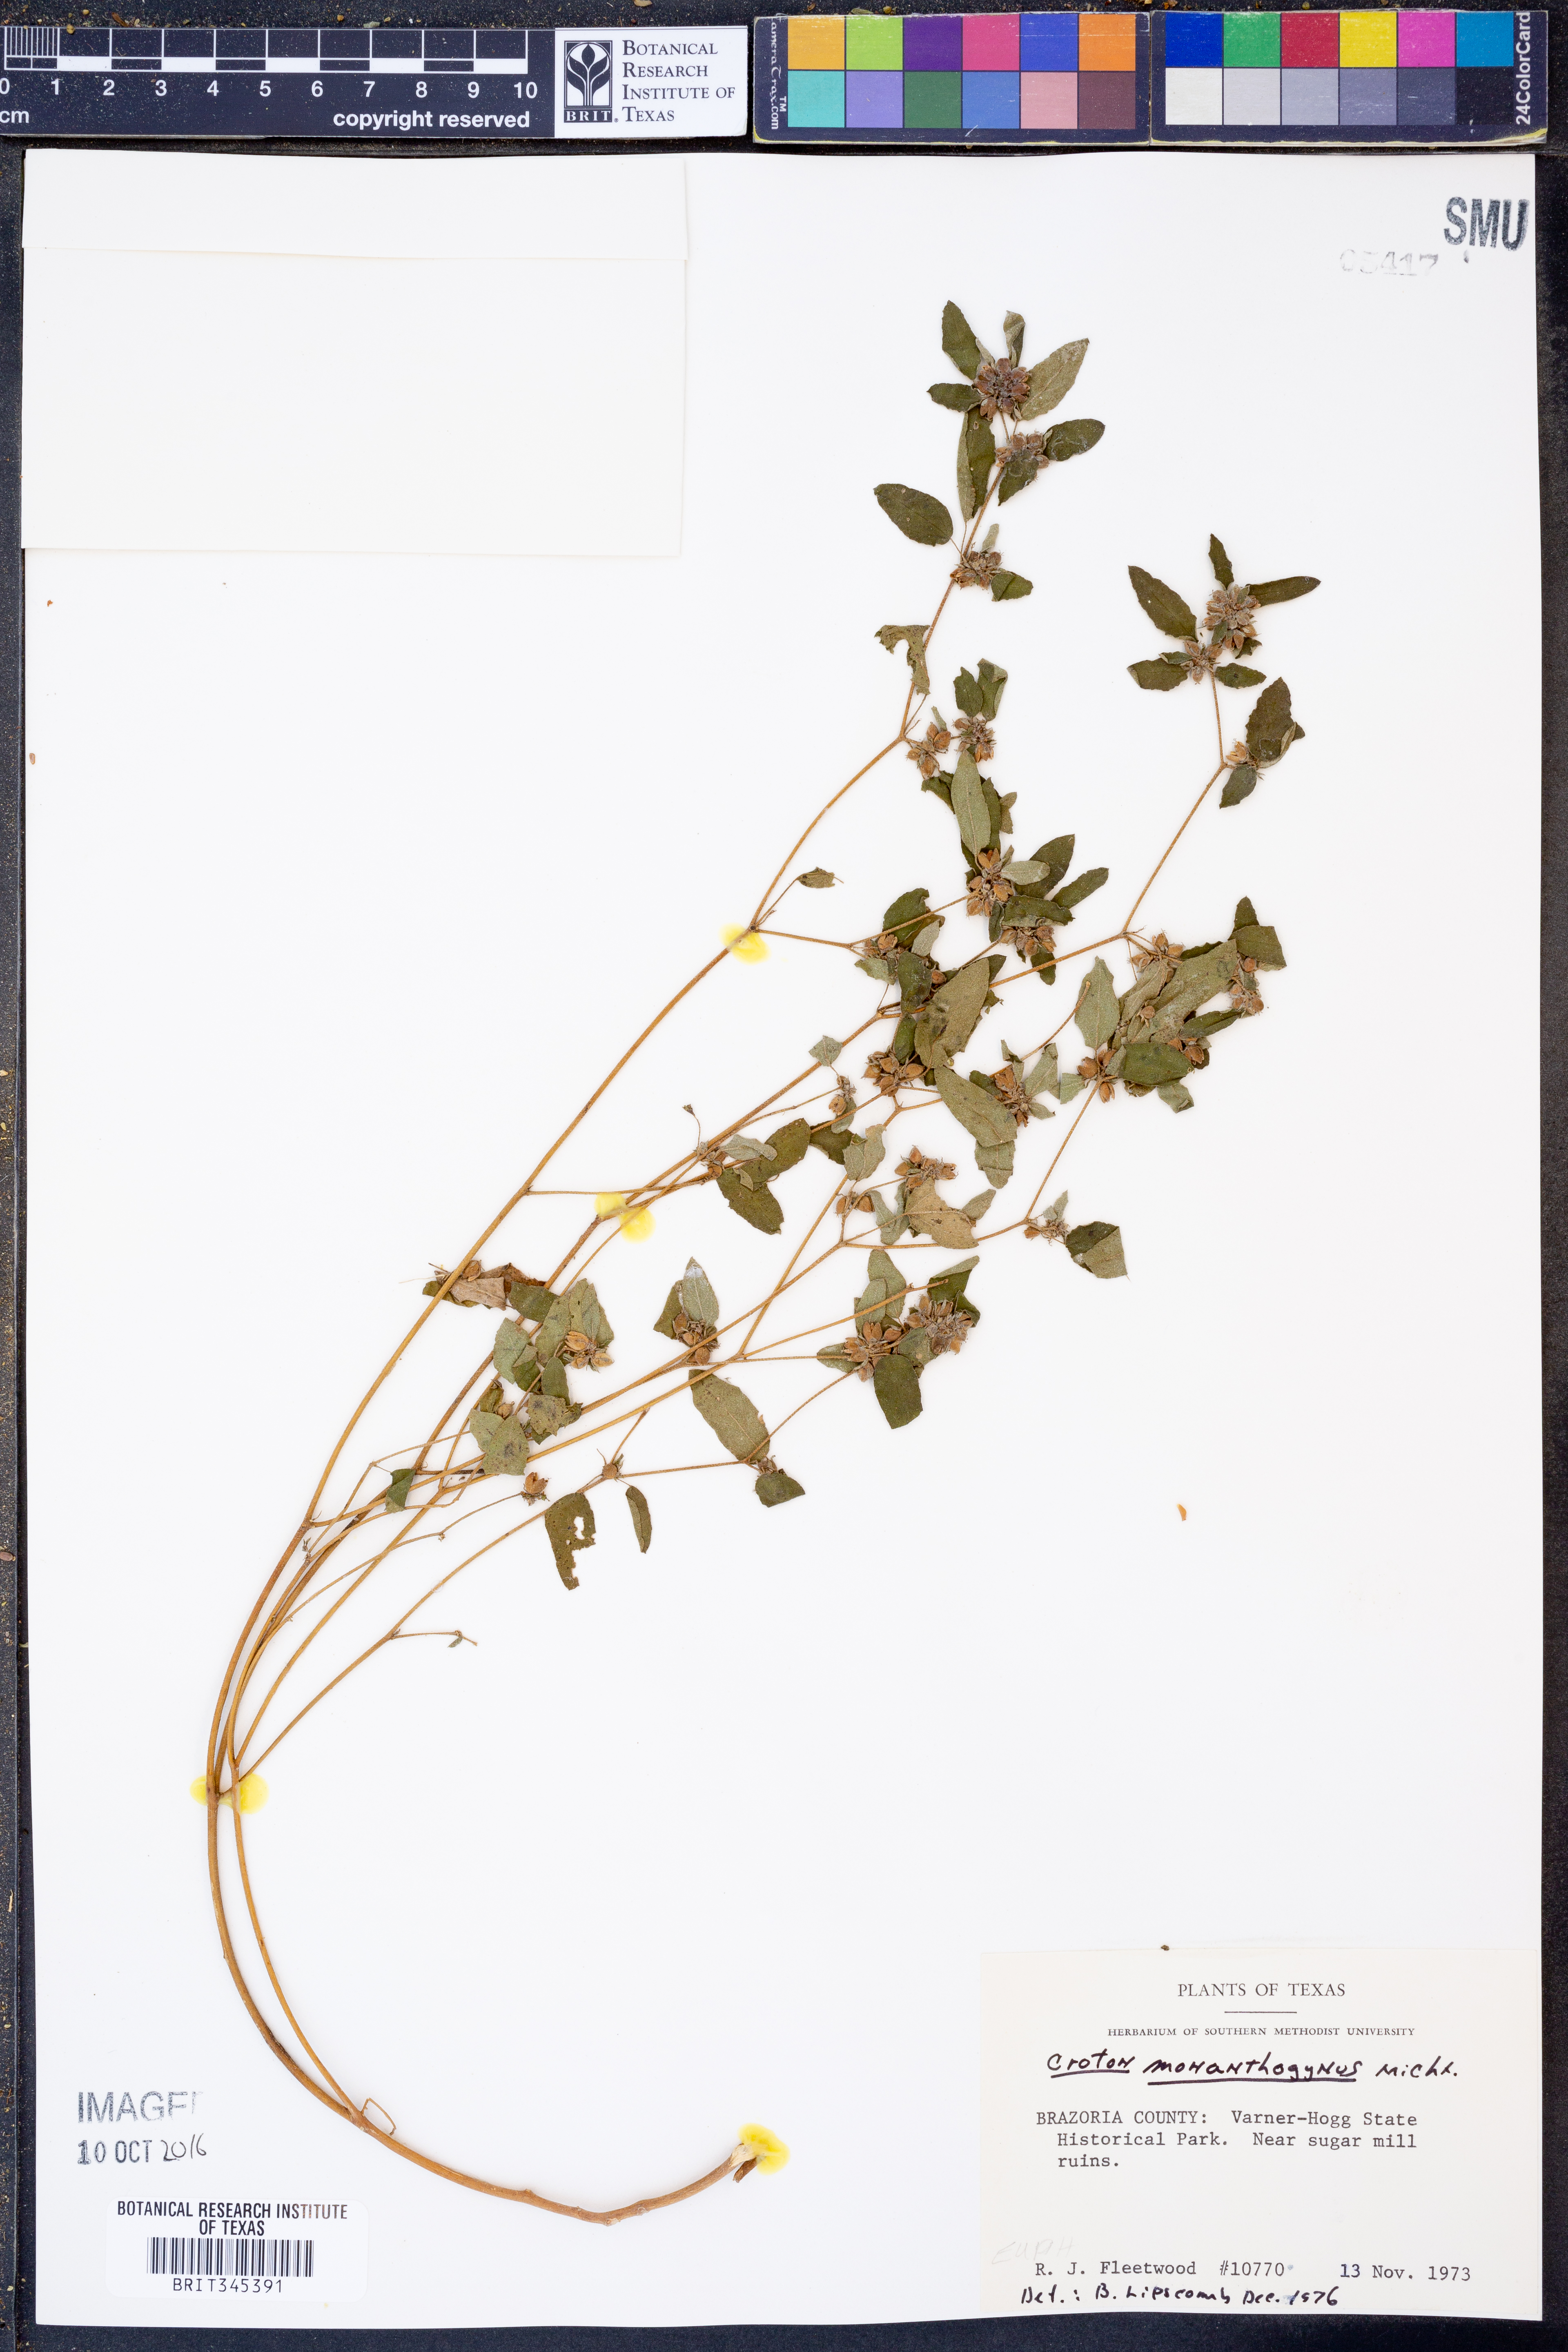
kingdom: Plantae
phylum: Tracheophyta
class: Magnoliopsida
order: Malpighiales
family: Euphorbiaceae
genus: Croton
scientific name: Croton monanthogynus
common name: One-seed croton
